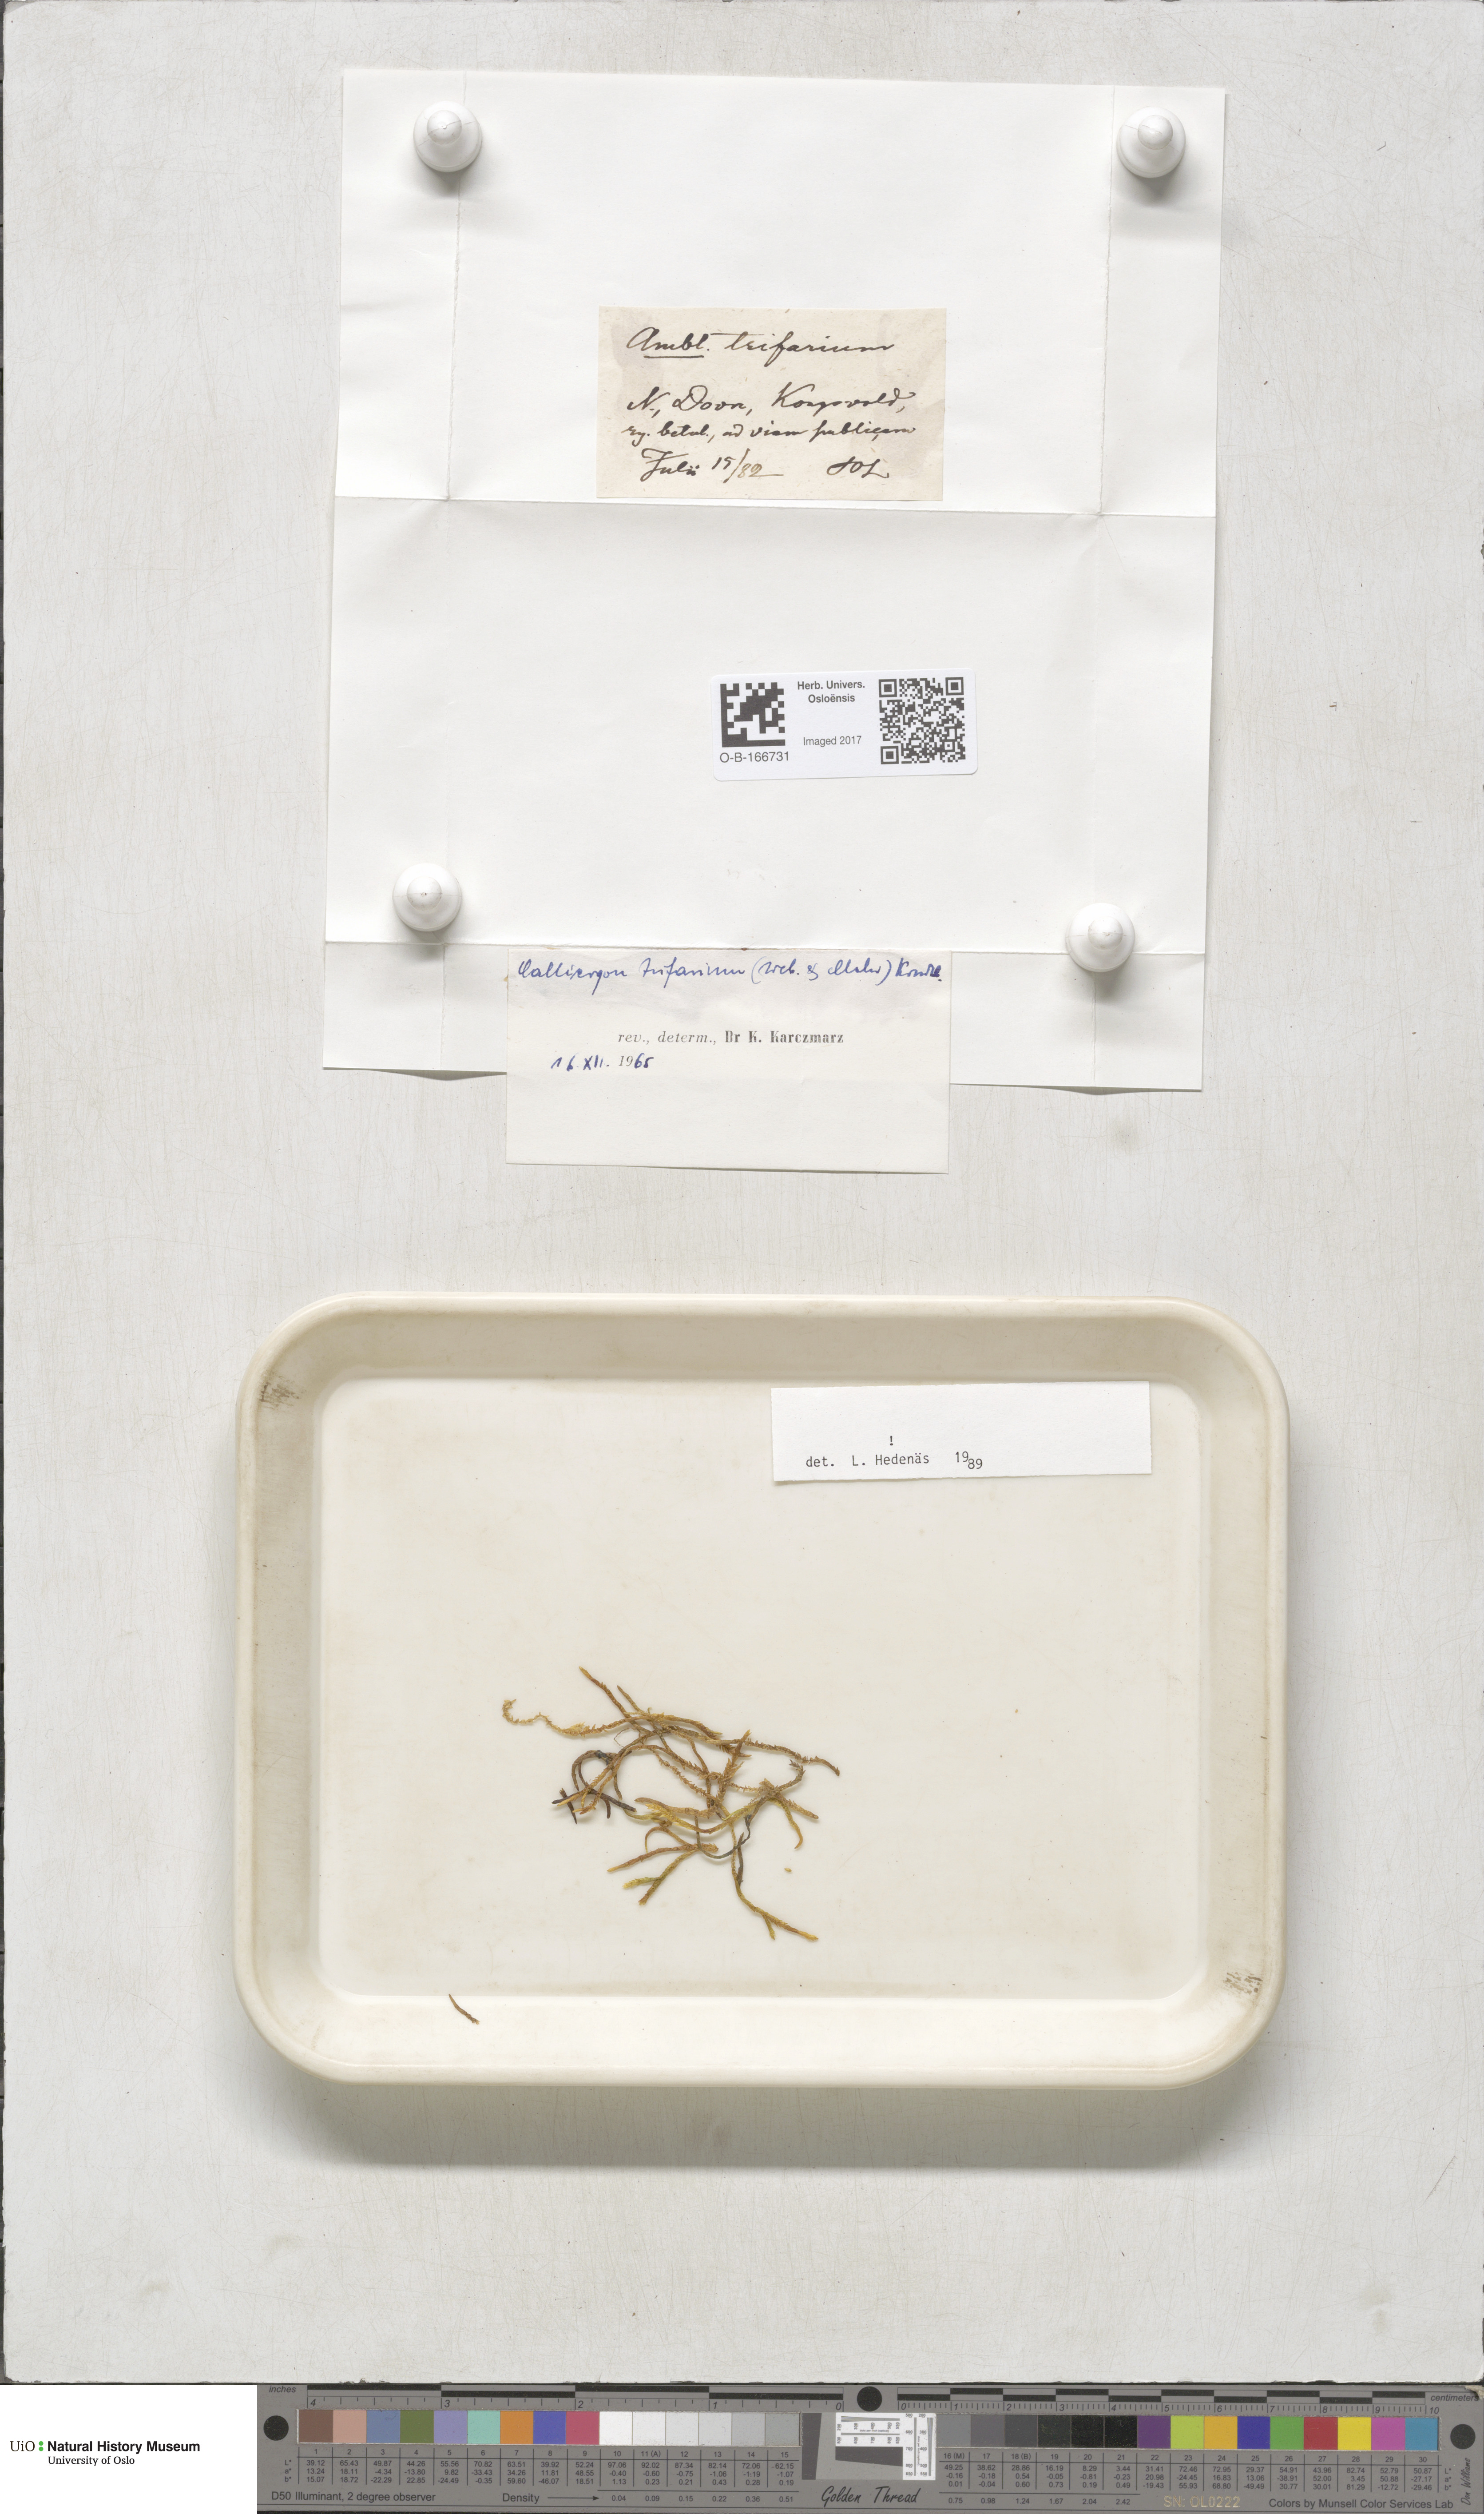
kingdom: Plantae
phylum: Bryophyta
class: Bryopsida
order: Hypnales
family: Amblystegiaceae
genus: Drepanocladus
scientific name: Drepanocladus trifarius
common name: Calliergon moss
